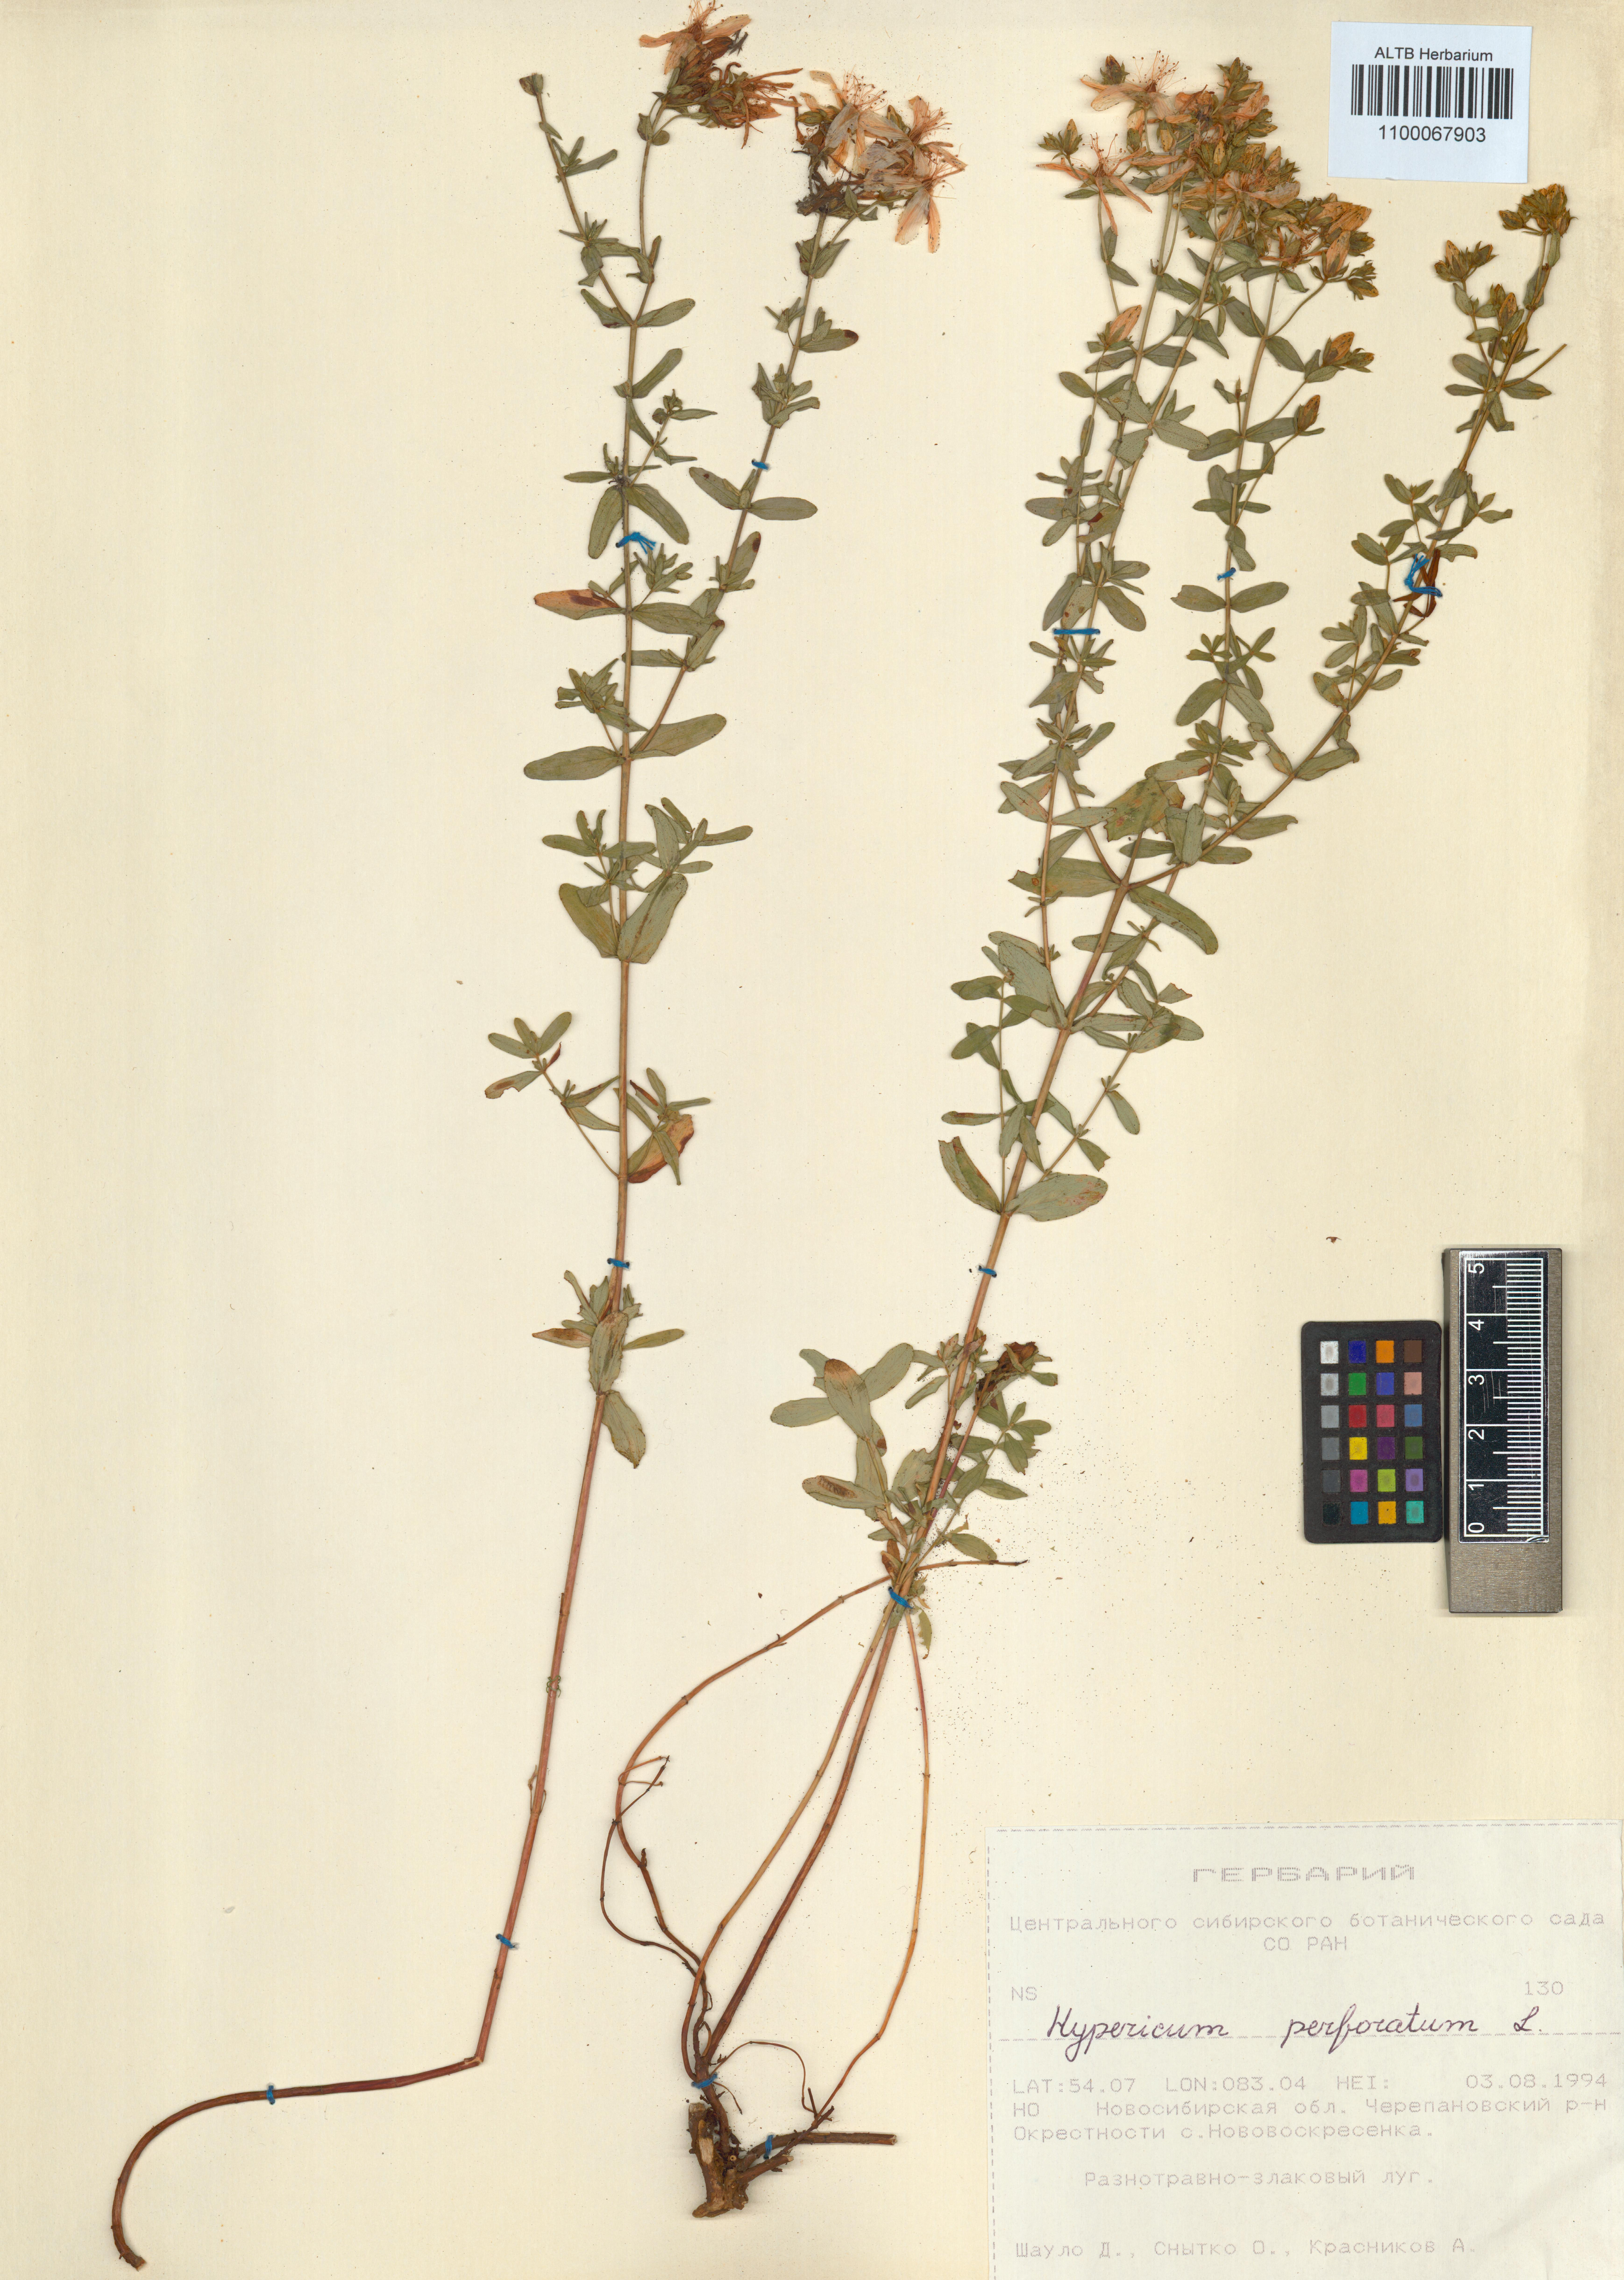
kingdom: Plantae
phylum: Tracheophyta
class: Magnoliopsida
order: Malpighiales
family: Hypericaceae
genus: Hypericum
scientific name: Hypericum perforatum
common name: Common st. johnswort
